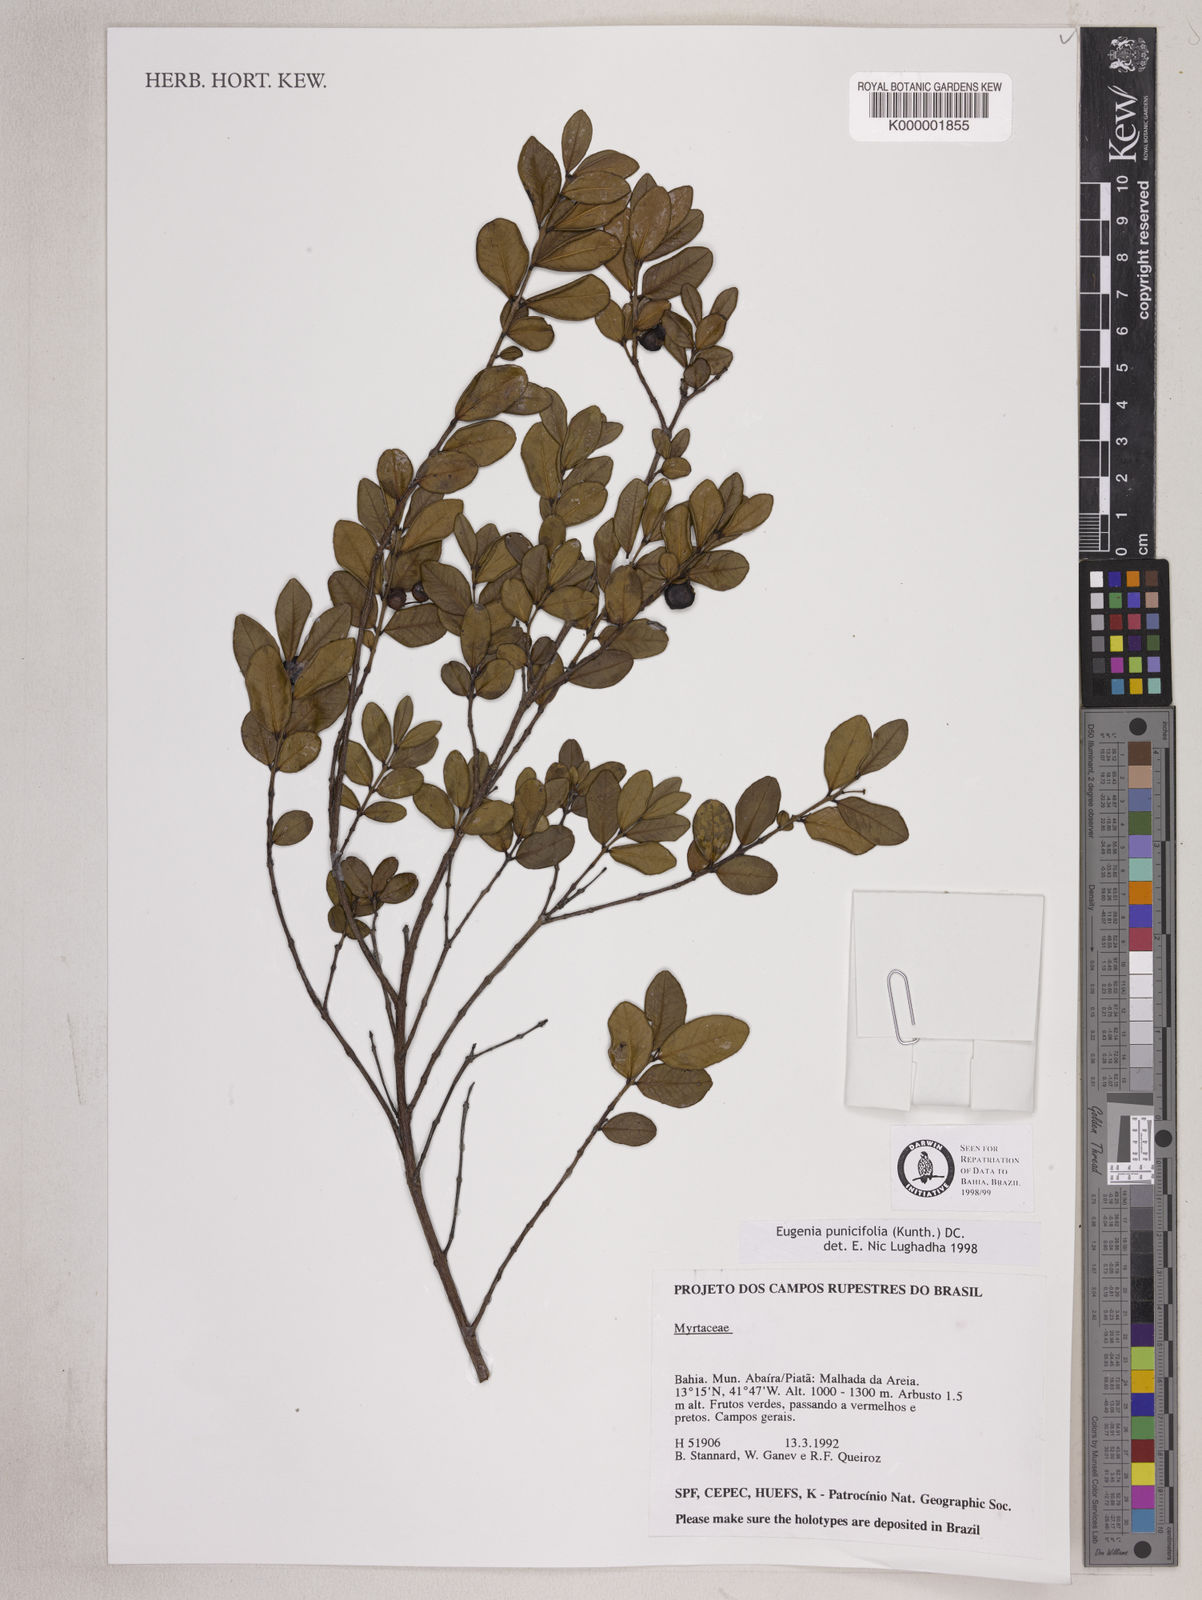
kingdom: Plantae
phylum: Tracheophyta
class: Magnoliopsida
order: Myrtales
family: Myrtaceae
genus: Eugenia
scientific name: Eugenia punicifolia
